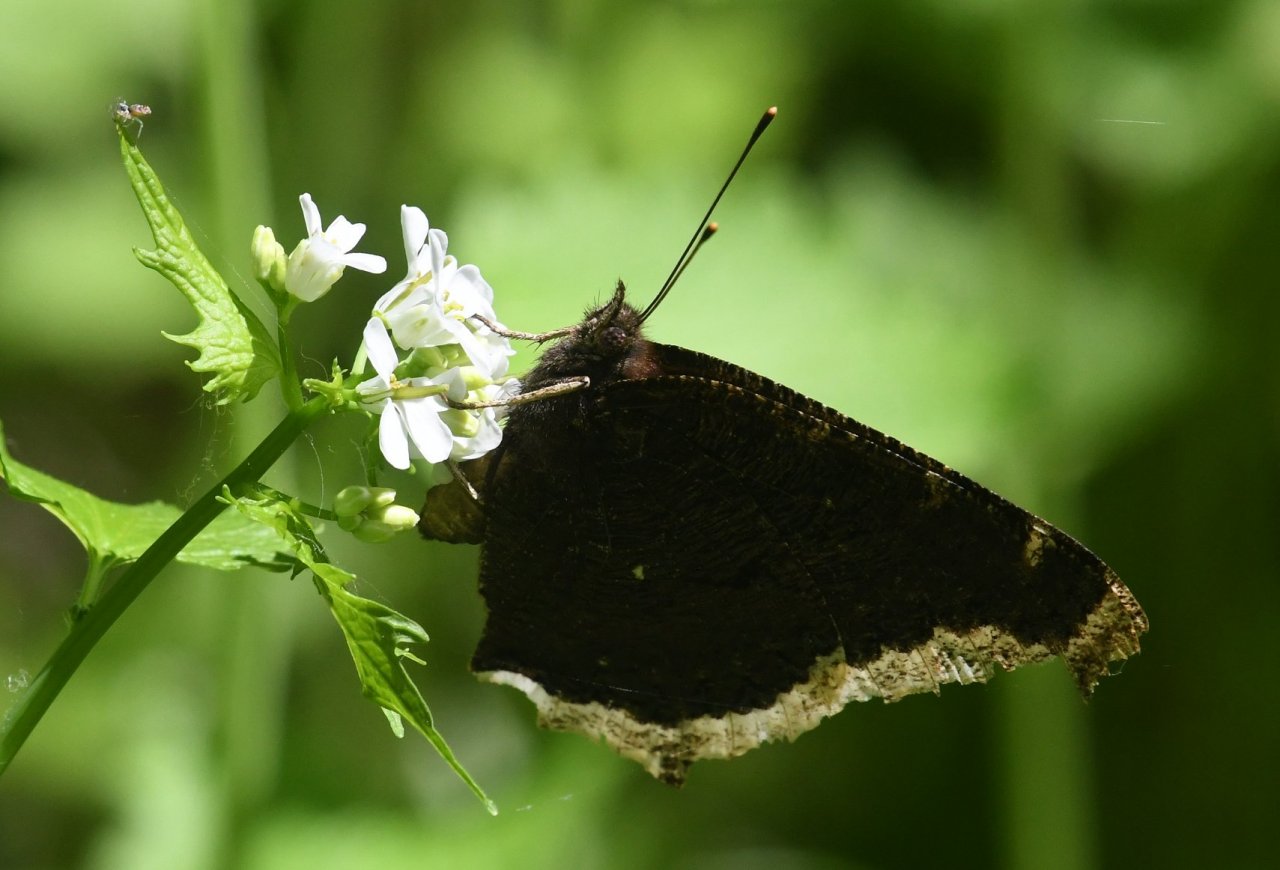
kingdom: Animalia
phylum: Arthropoda
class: Insecta
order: Lepidoptera
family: Nymphalidae
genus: Nymphalis
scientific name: Nymphalis antiopa
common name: Mourning Cloak
